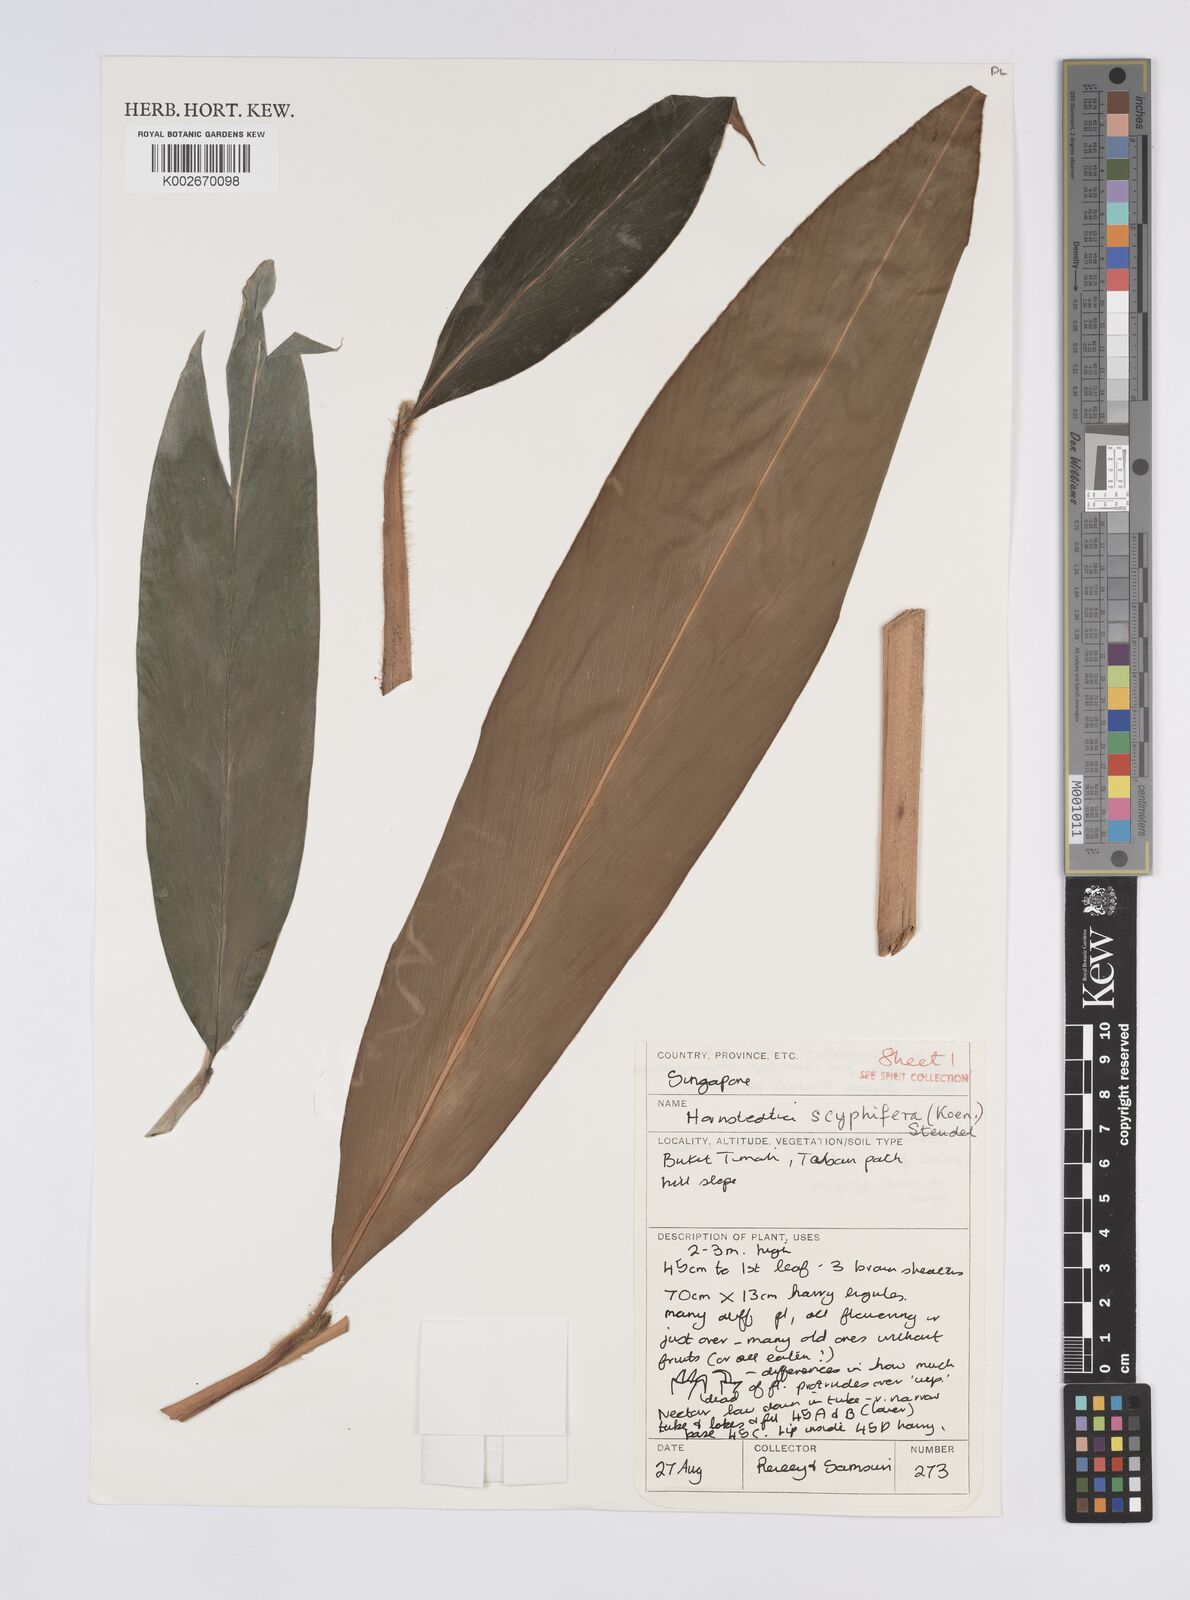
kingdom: Plantae
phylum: Tracheophyta
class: Liliopsida
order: Zingiberales
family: Zingiberaceae
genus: Hornstedtia
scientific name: Hornstedtia scyphifera
